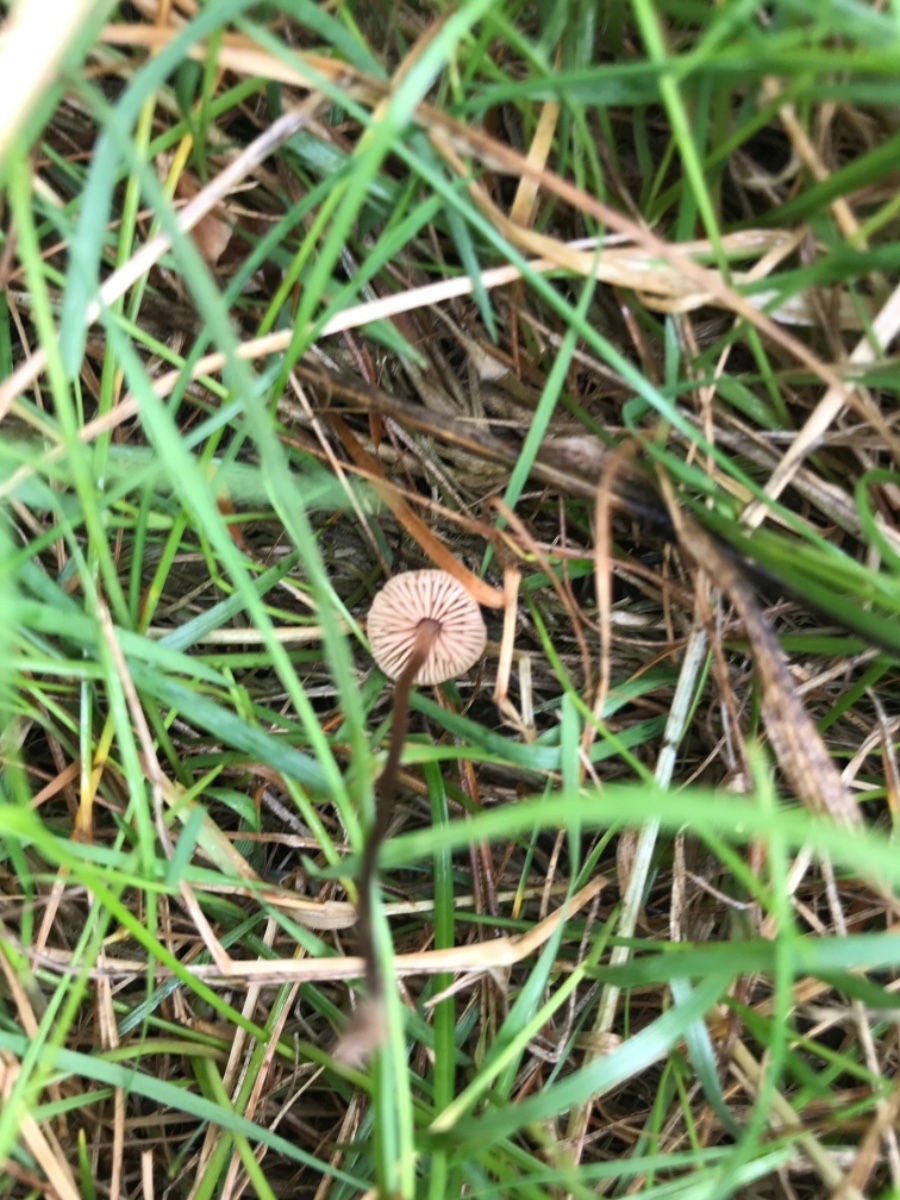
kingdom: Fungi
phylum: Basidiomycota
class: Agaricomycetes
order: Agaricales
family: Macrocystidiaceae
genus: Macrocystidia
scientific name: Macrocystidia cucumis
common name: Cucumber cap
